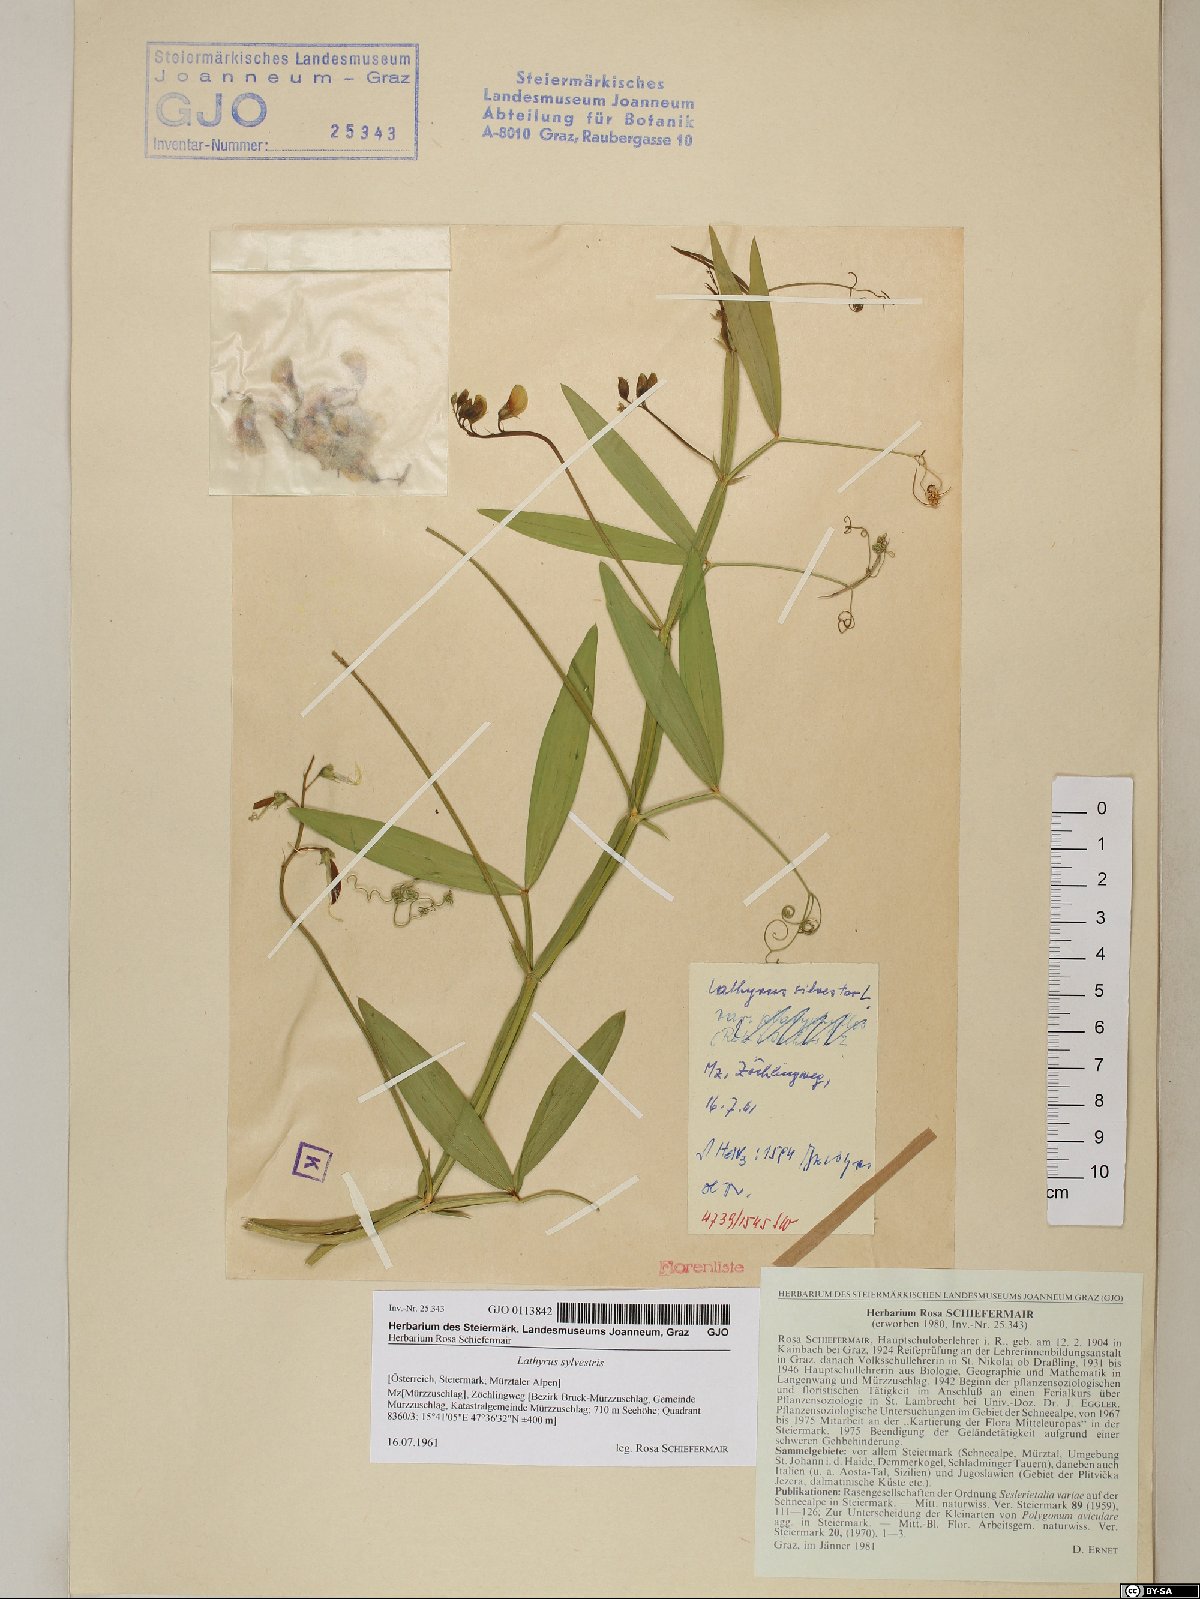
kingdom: Plantae
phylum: Tracheophyta
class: Magnoliopsida
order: Fabales
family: Fabaceae
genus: Lathyrus
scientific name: Lathyrus sylvestris
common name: Flat pea
